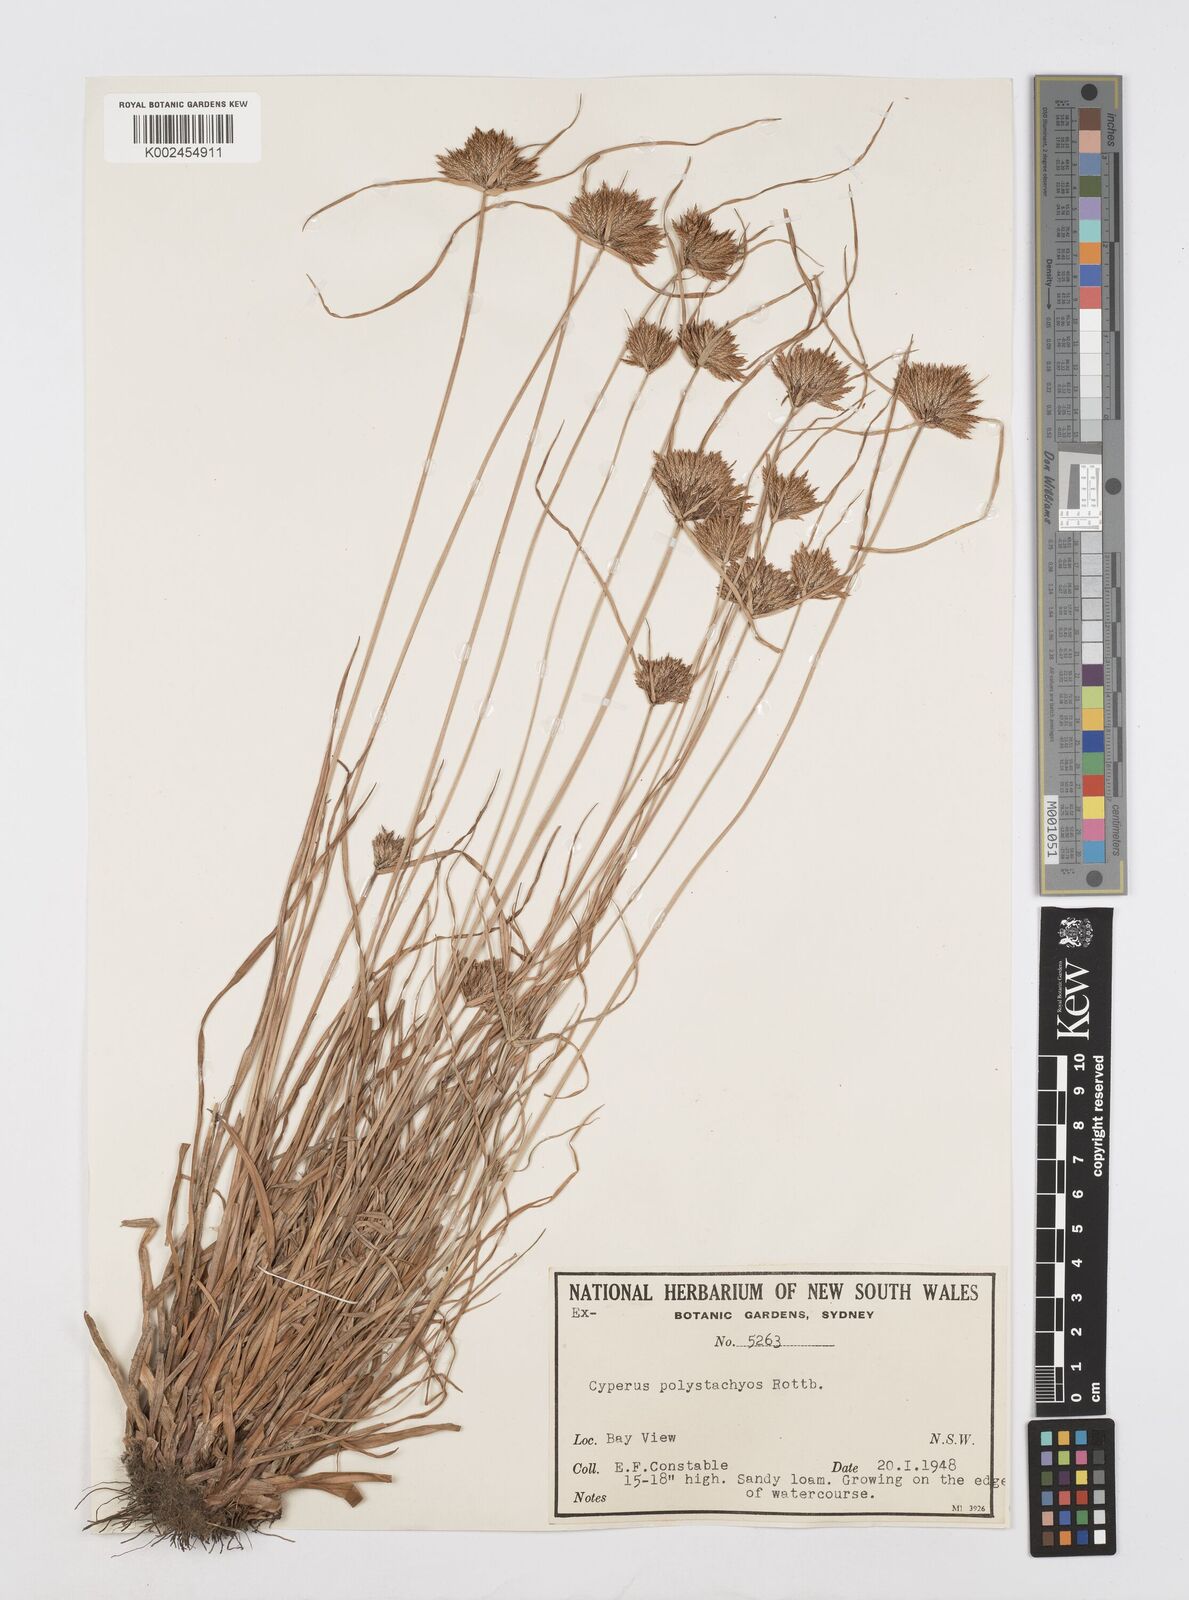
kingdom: Plantae
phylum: Tracheophyta
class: Liliopsida
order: Poales
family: Cyperaceae
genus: Cyperus
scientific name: Cyperus polystachyos
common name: Bunchy flat sedge
